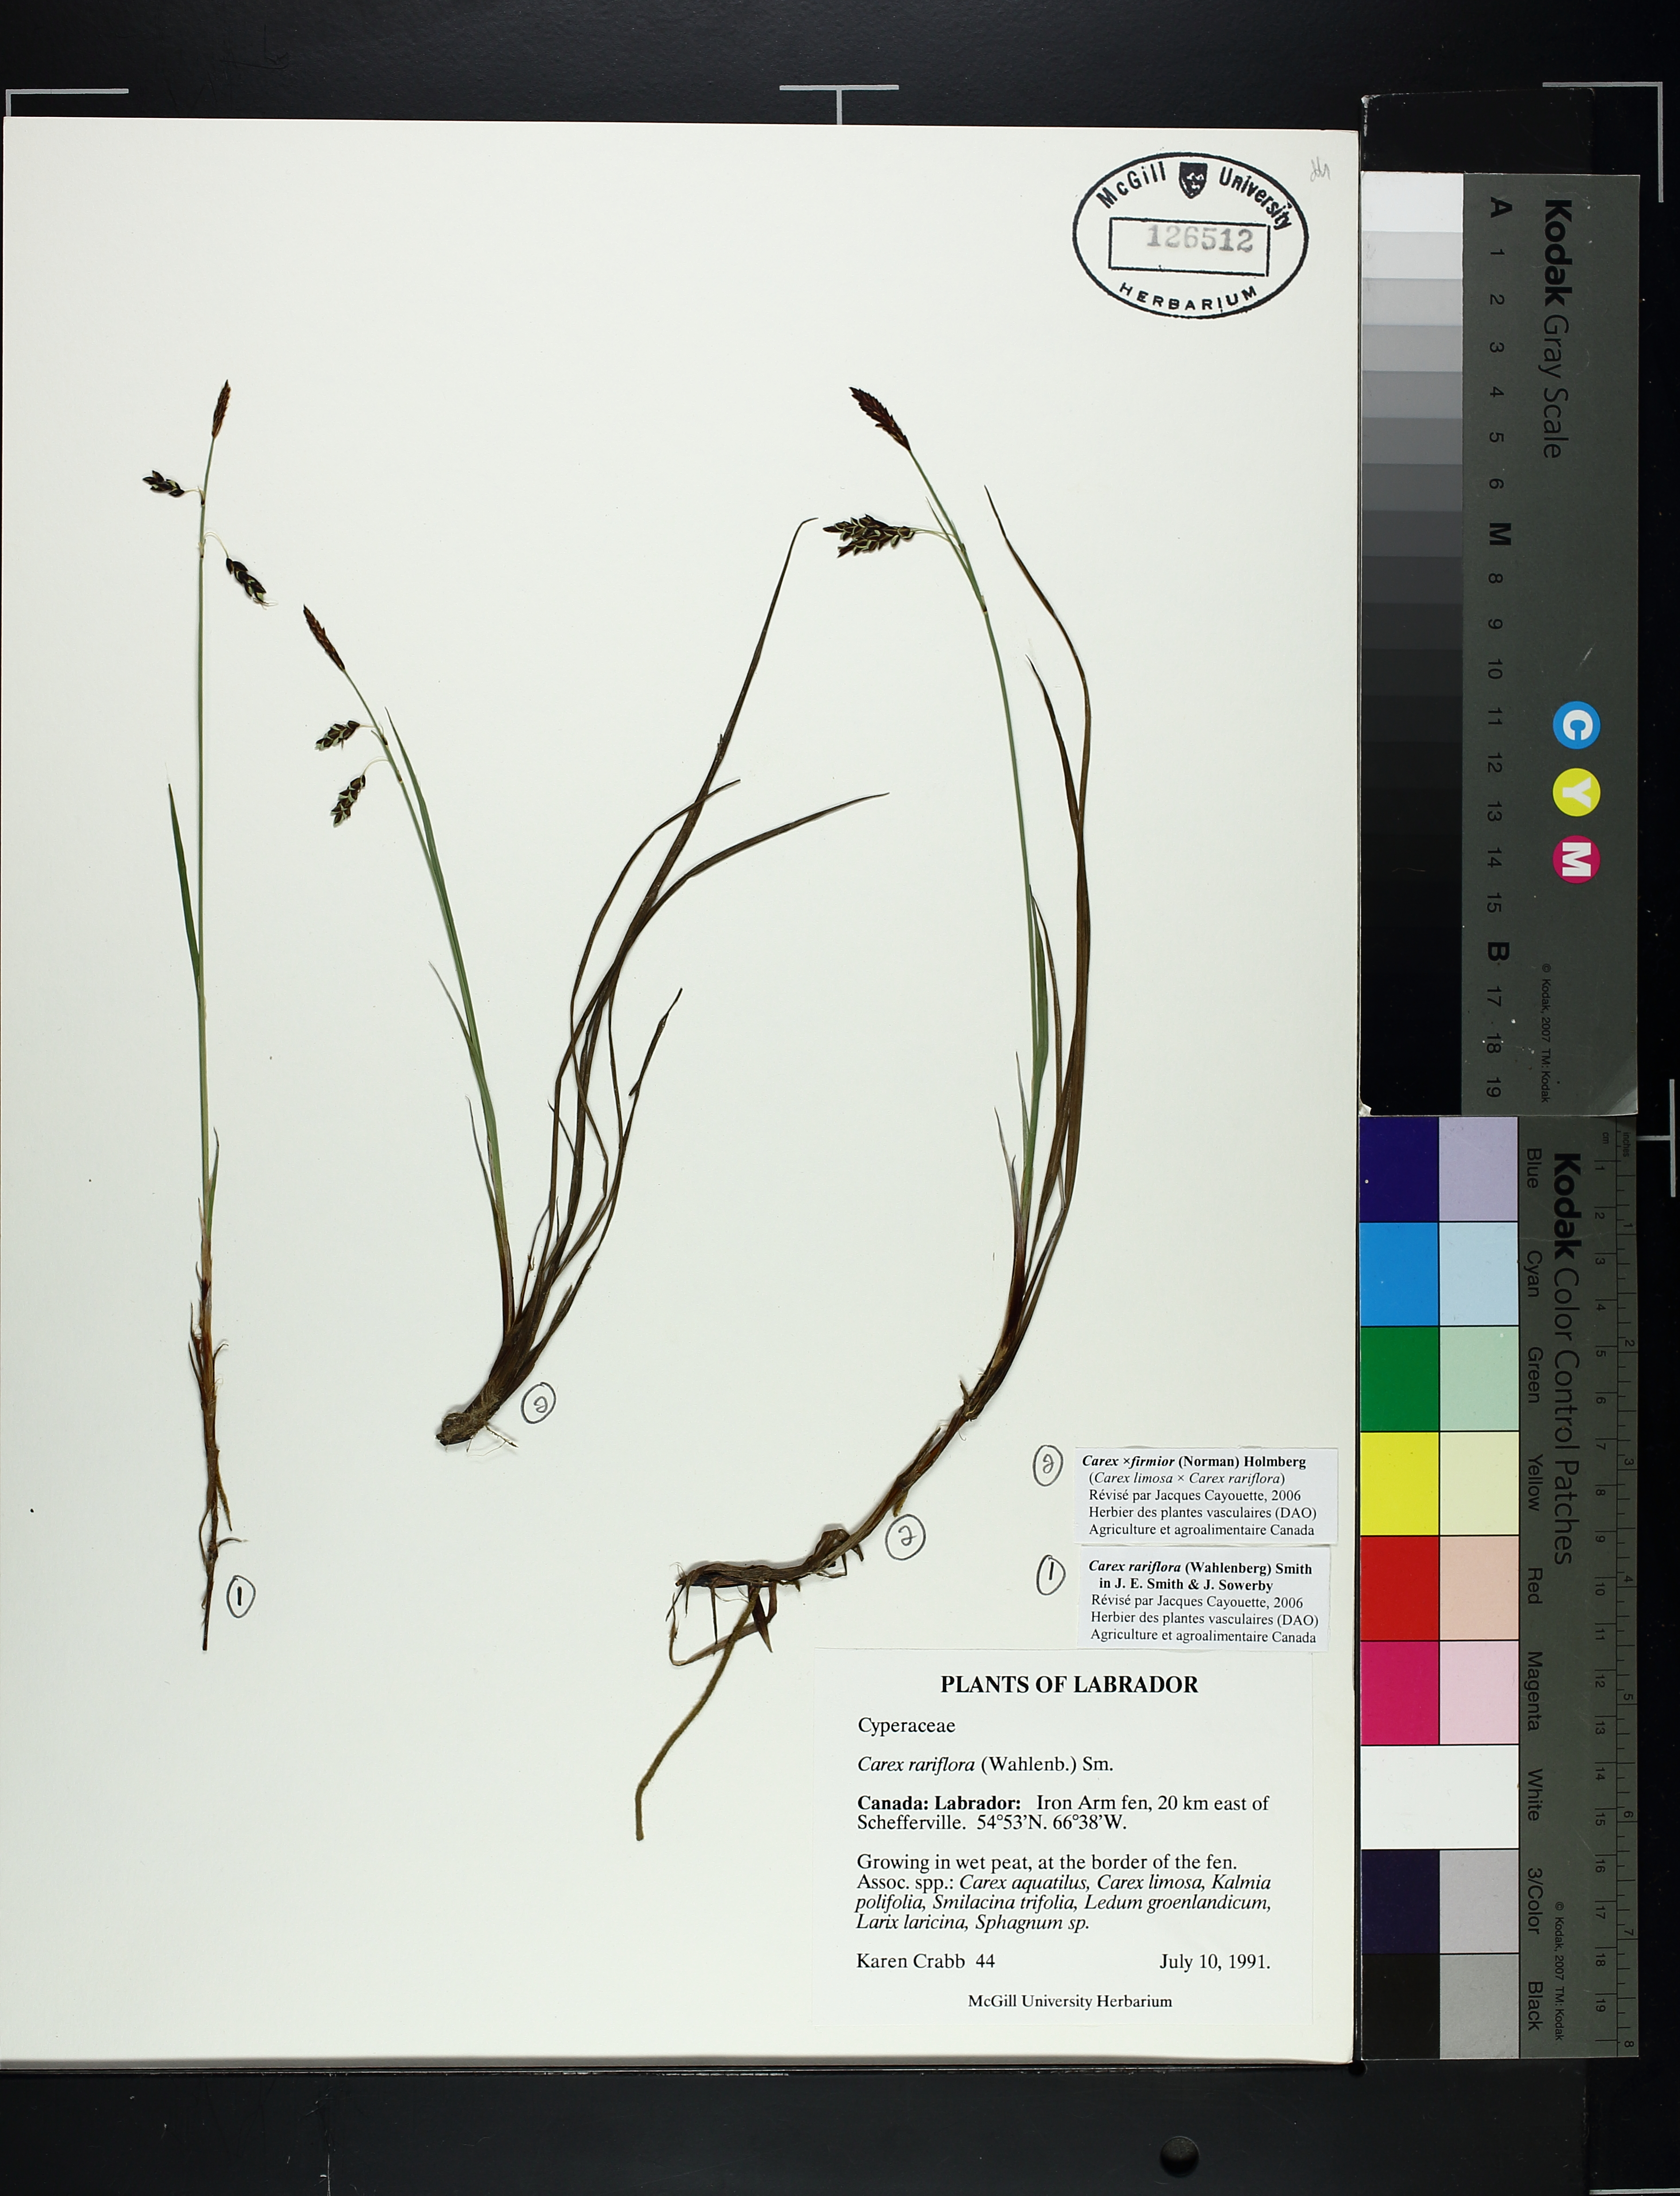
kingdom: Plantae
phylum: Tracheophyta
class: Liliopsida
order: Poales
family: Cyperaceae
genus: Carex
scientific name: Carex rariflora
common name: Loose-flowered alpine sedge
